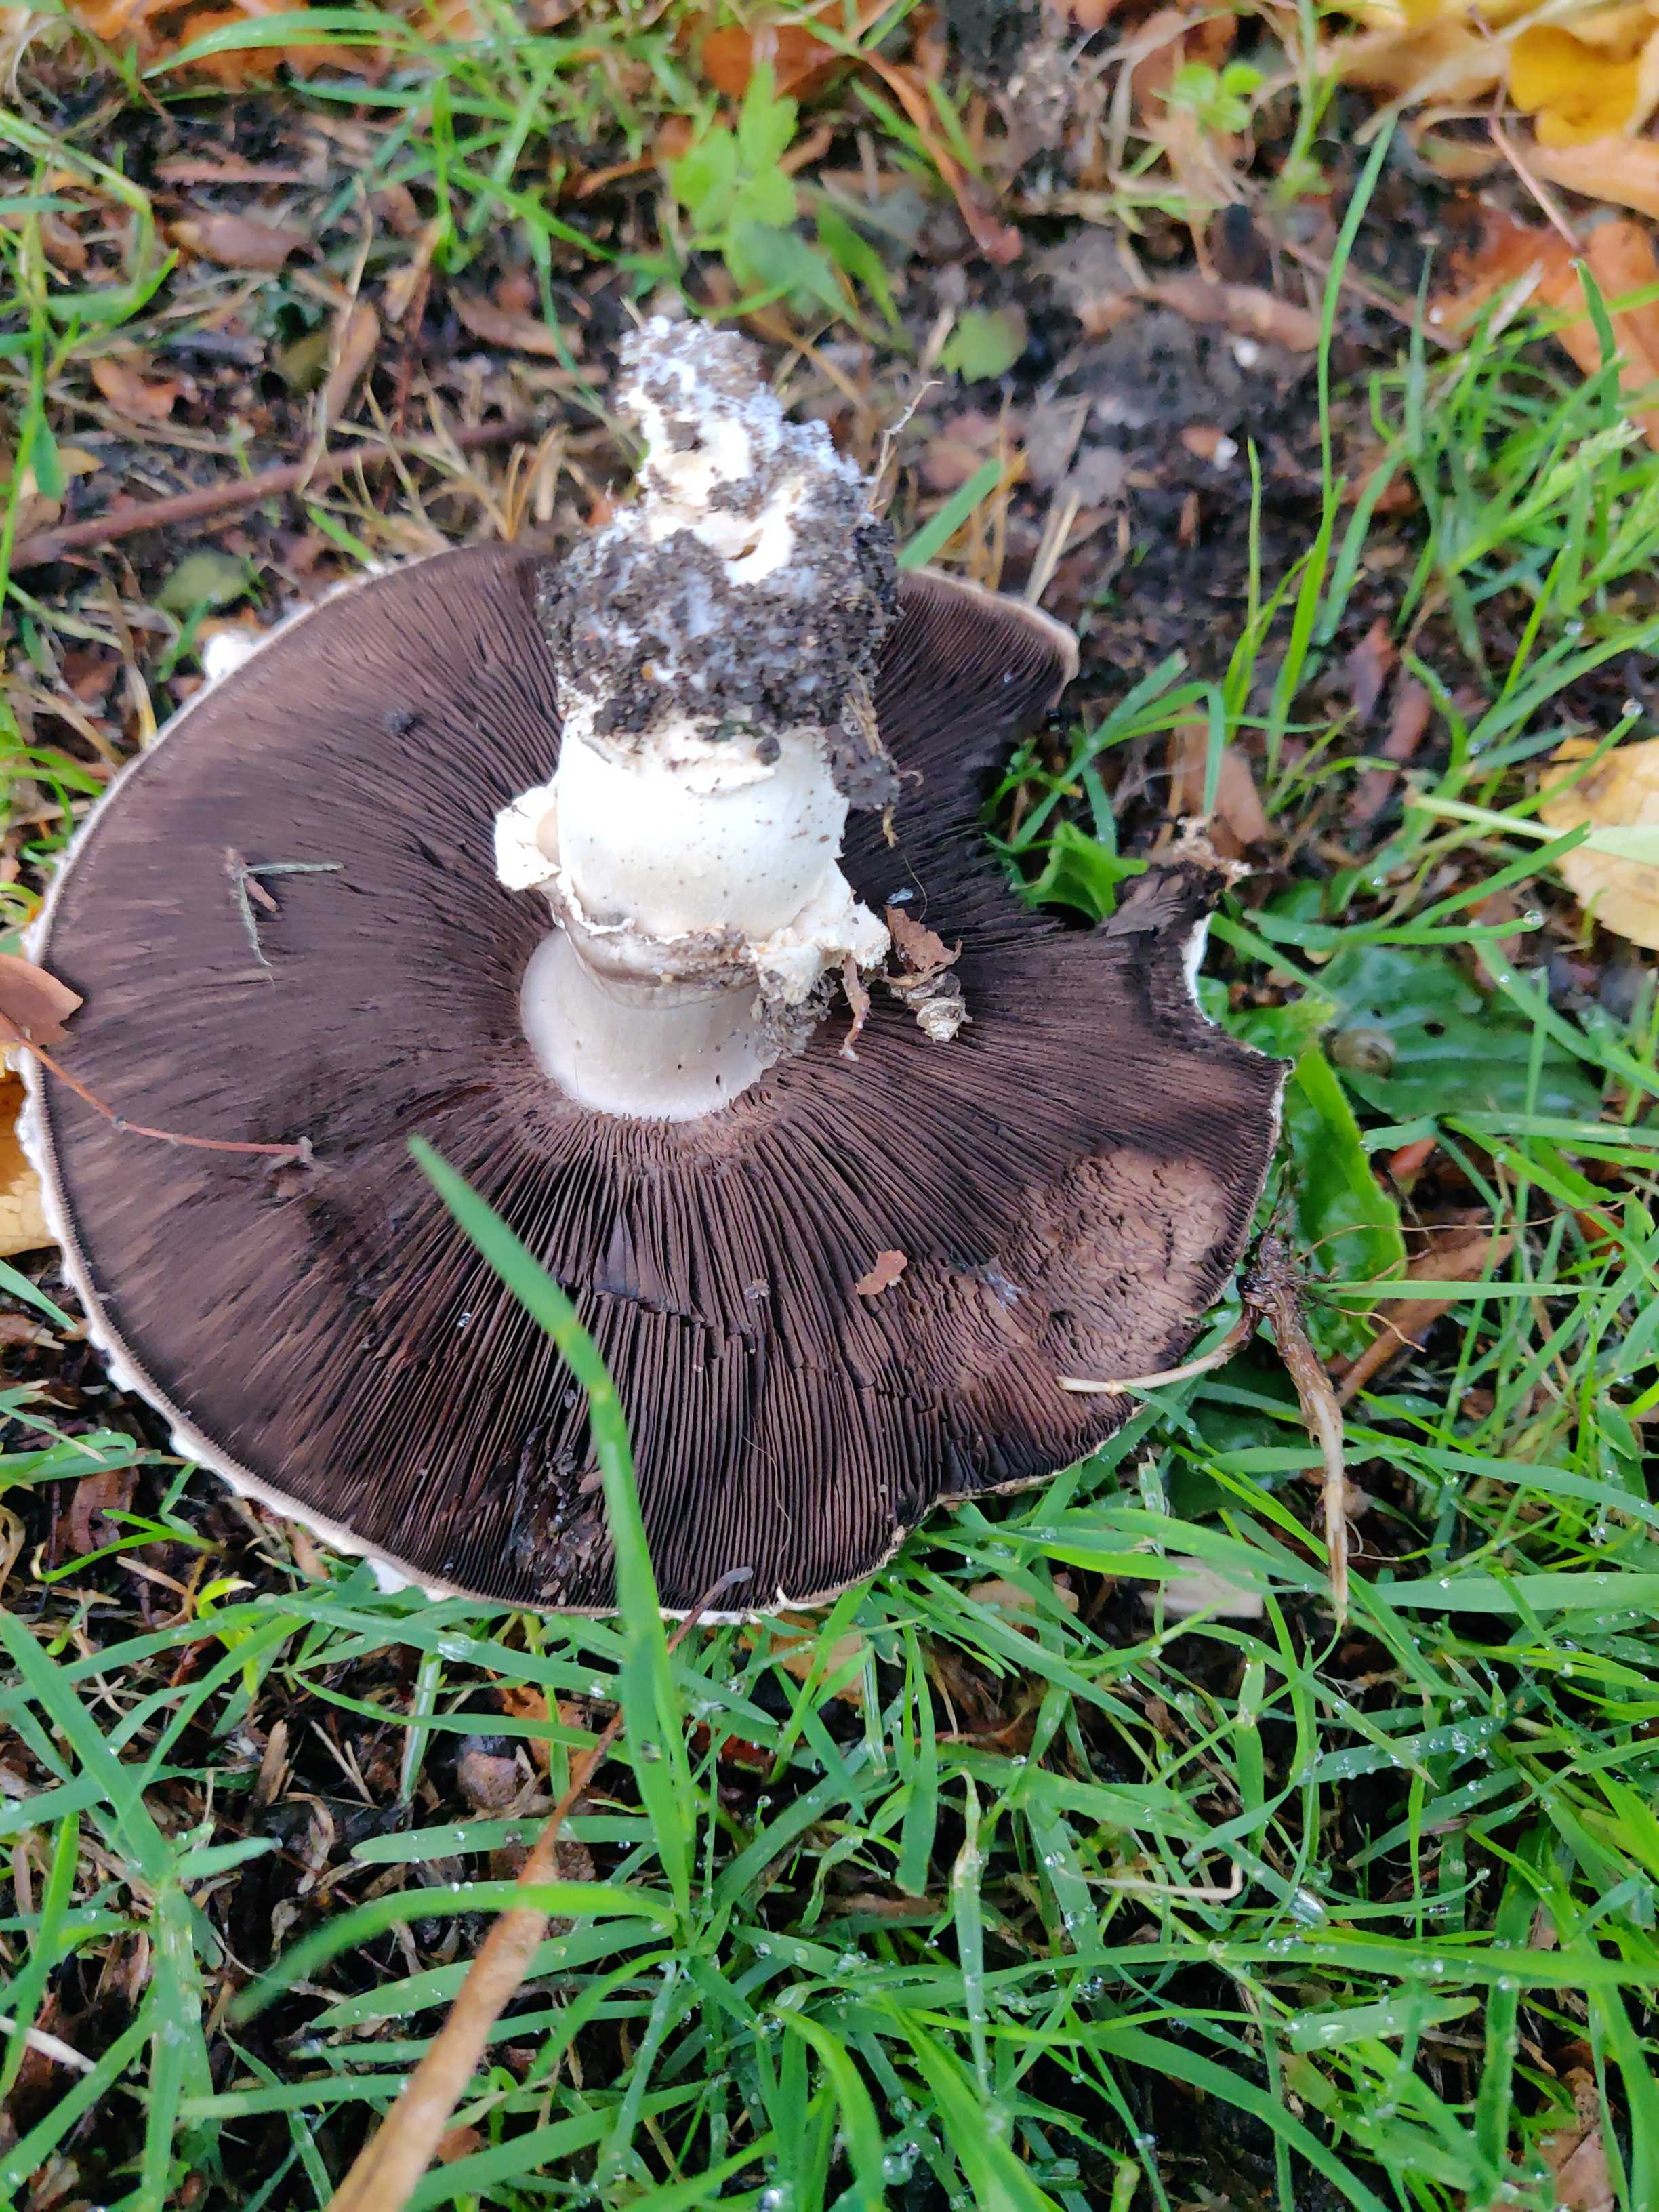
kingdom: Fungi
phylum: Basidiomycota
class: Agaricomycetes
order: Agaricales
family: Agaricaceae
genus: Agaricus
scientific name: Agaricus
